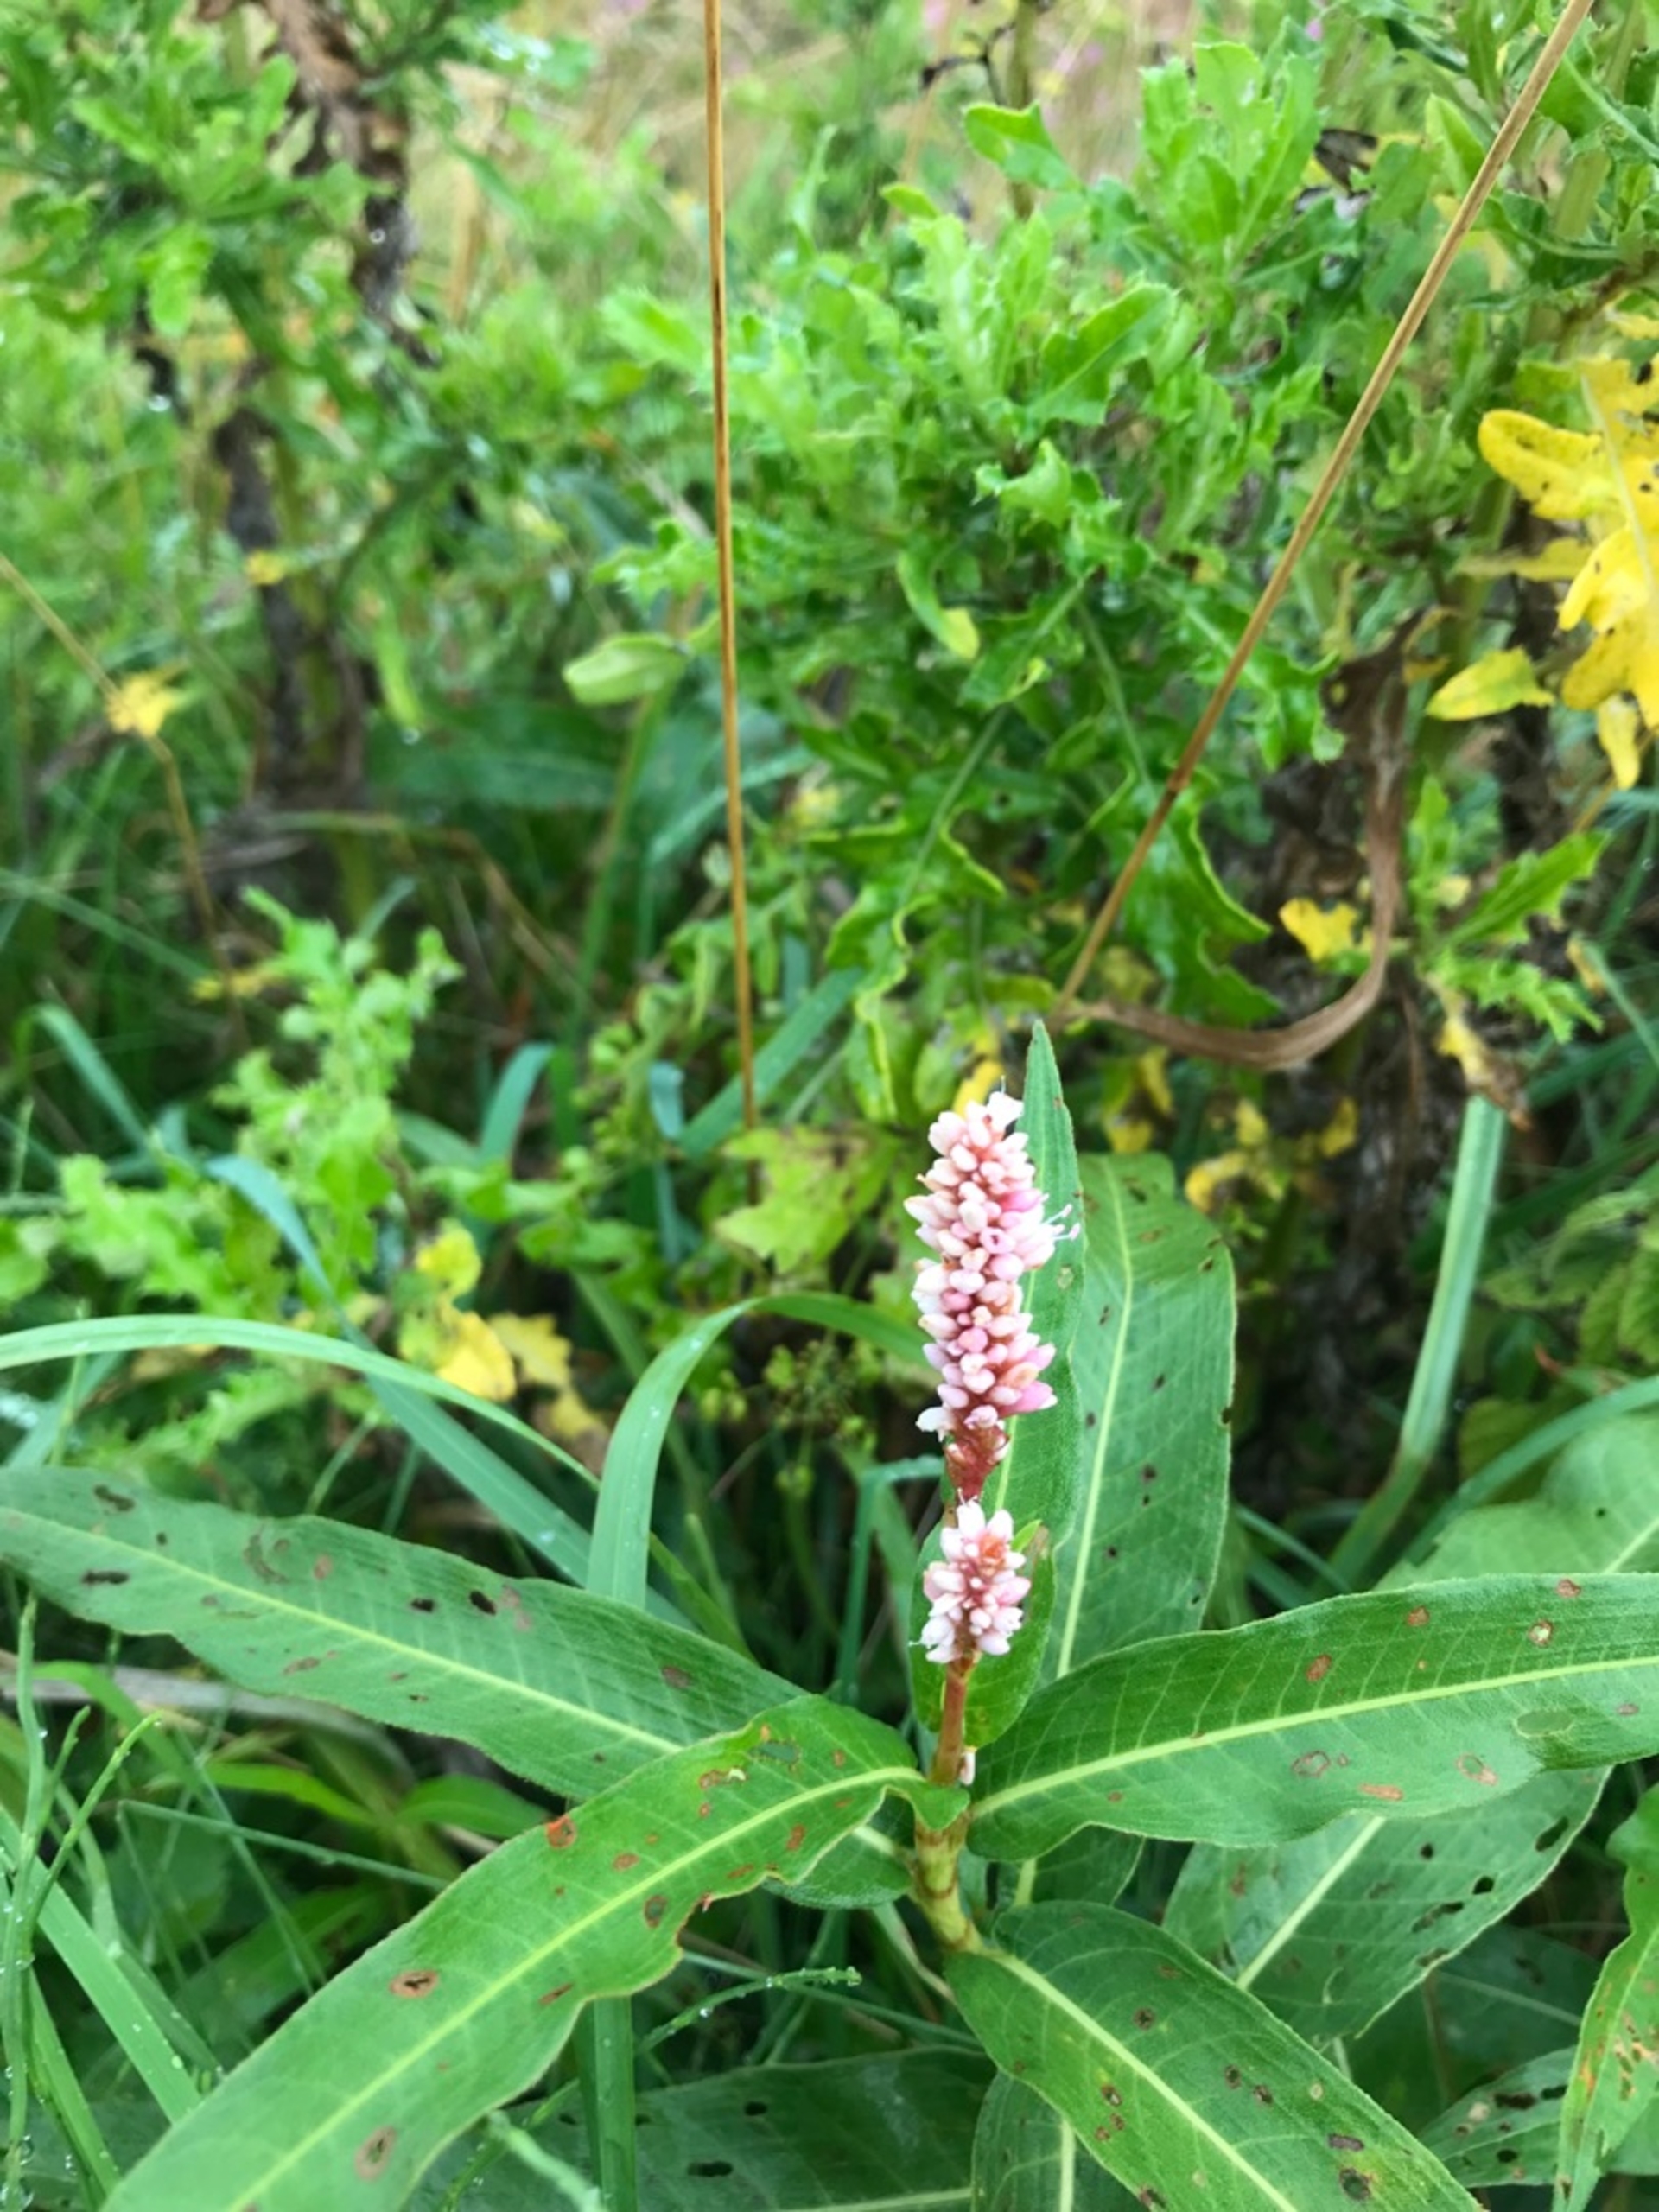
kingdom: Plantae
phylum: Tracheophyta
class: Magnoliopsida
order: Caryophyllales
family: Polygonaceae
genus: Persicaria
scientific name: Persicaria amphibia
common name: Vand-pileurt
